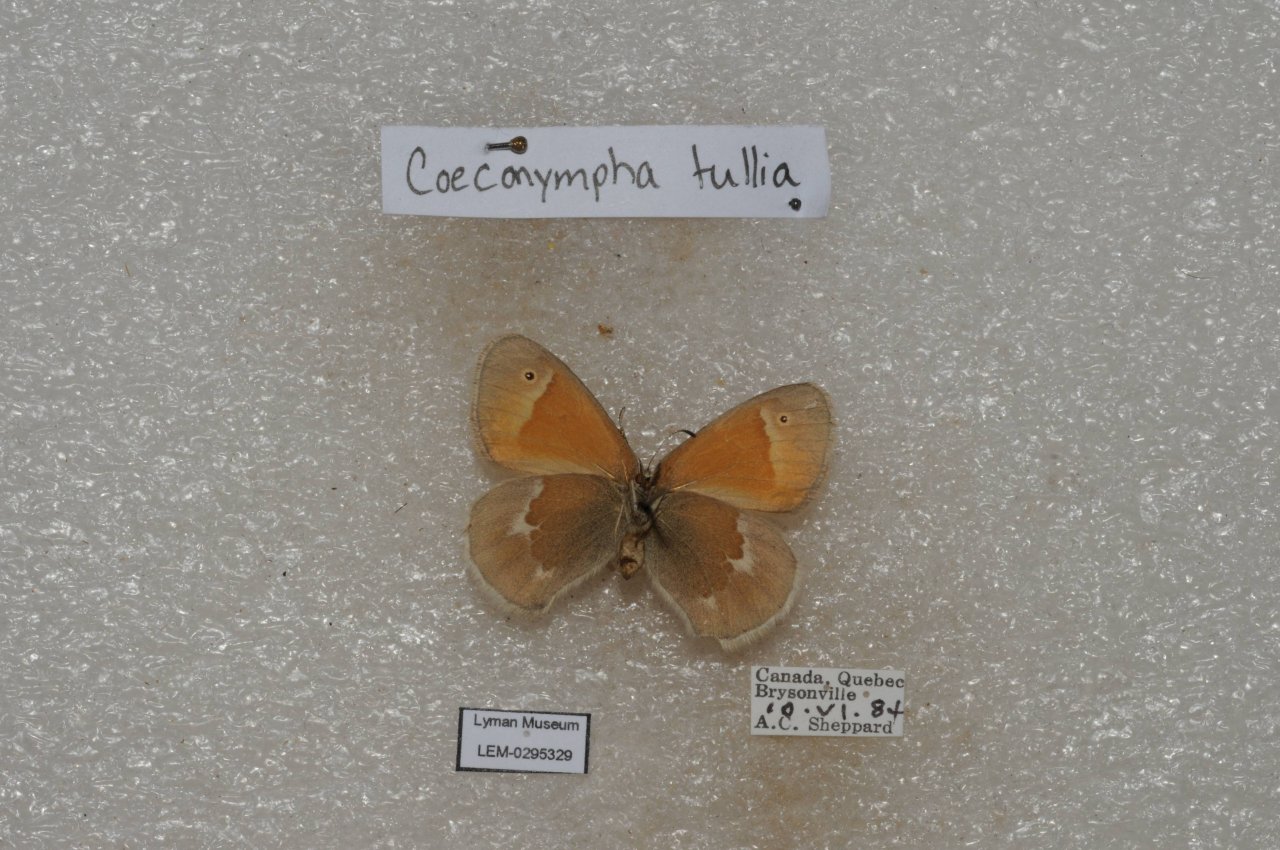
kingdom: Animalia
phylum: Arthropoda
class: Insecta
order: Lepidoptera
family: Nymphalidae
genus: Coenonympha
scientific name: Coenonympha tullia
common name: Large Heath
